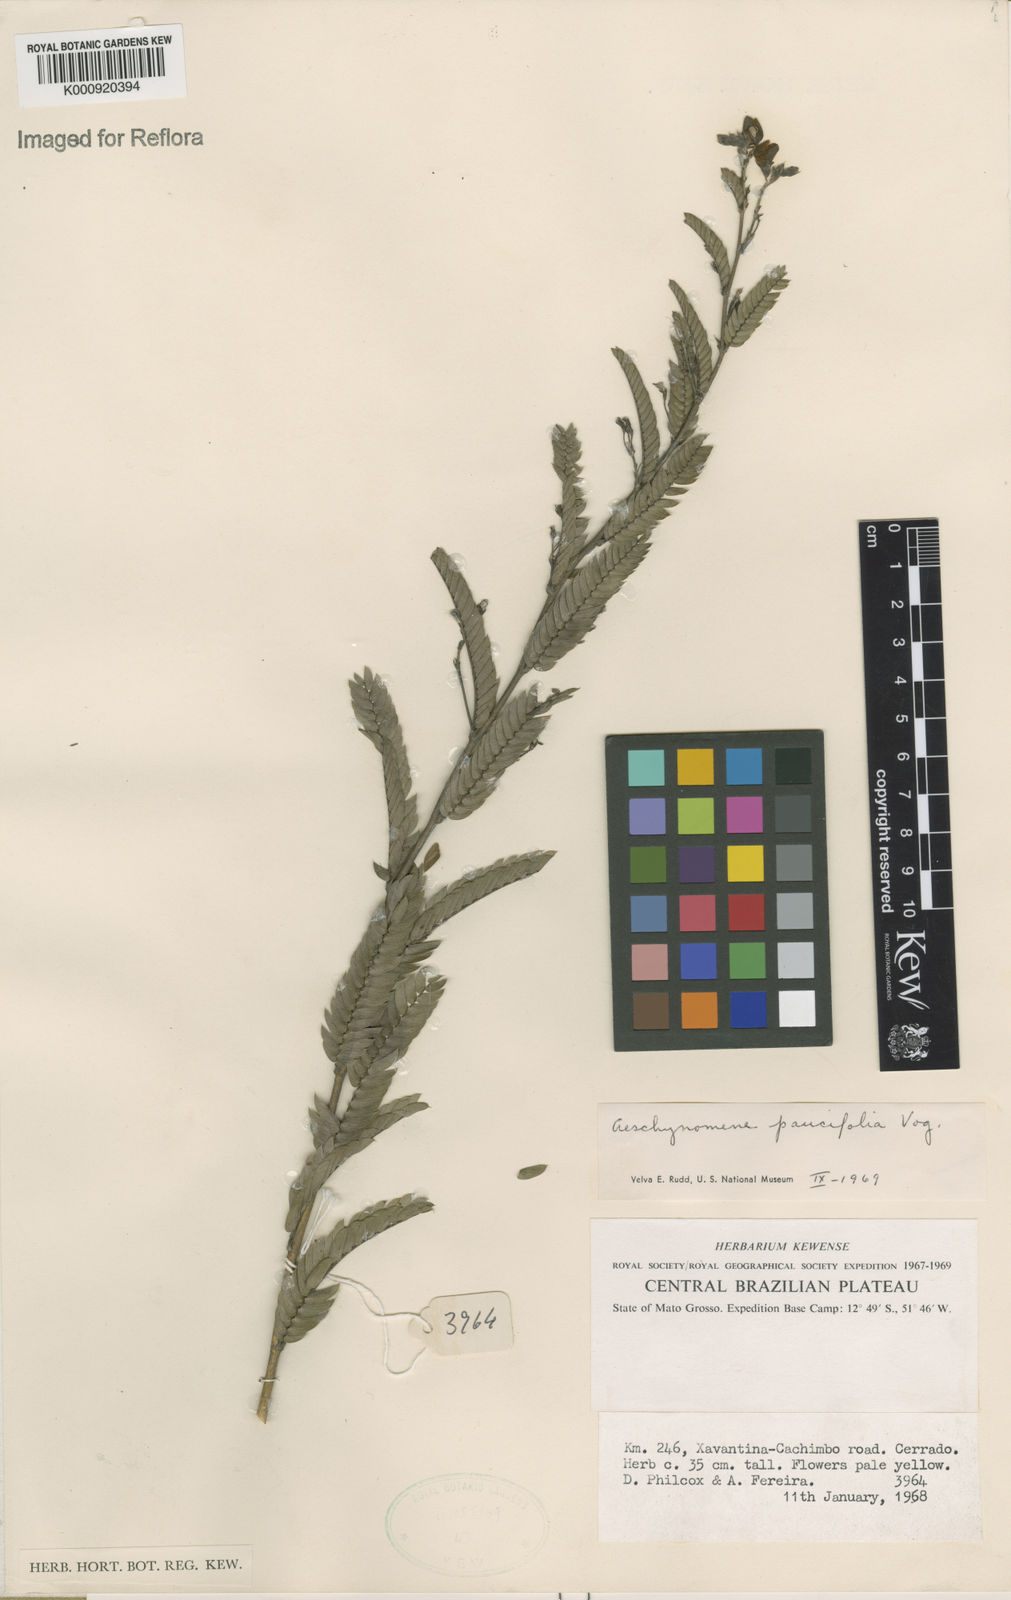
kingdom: Plantae
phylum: Tracheophyta
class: Magnoliopsida
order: Fabales
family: Fabaceae
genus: Ctenodon
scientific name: Ctenodon paucifolius
